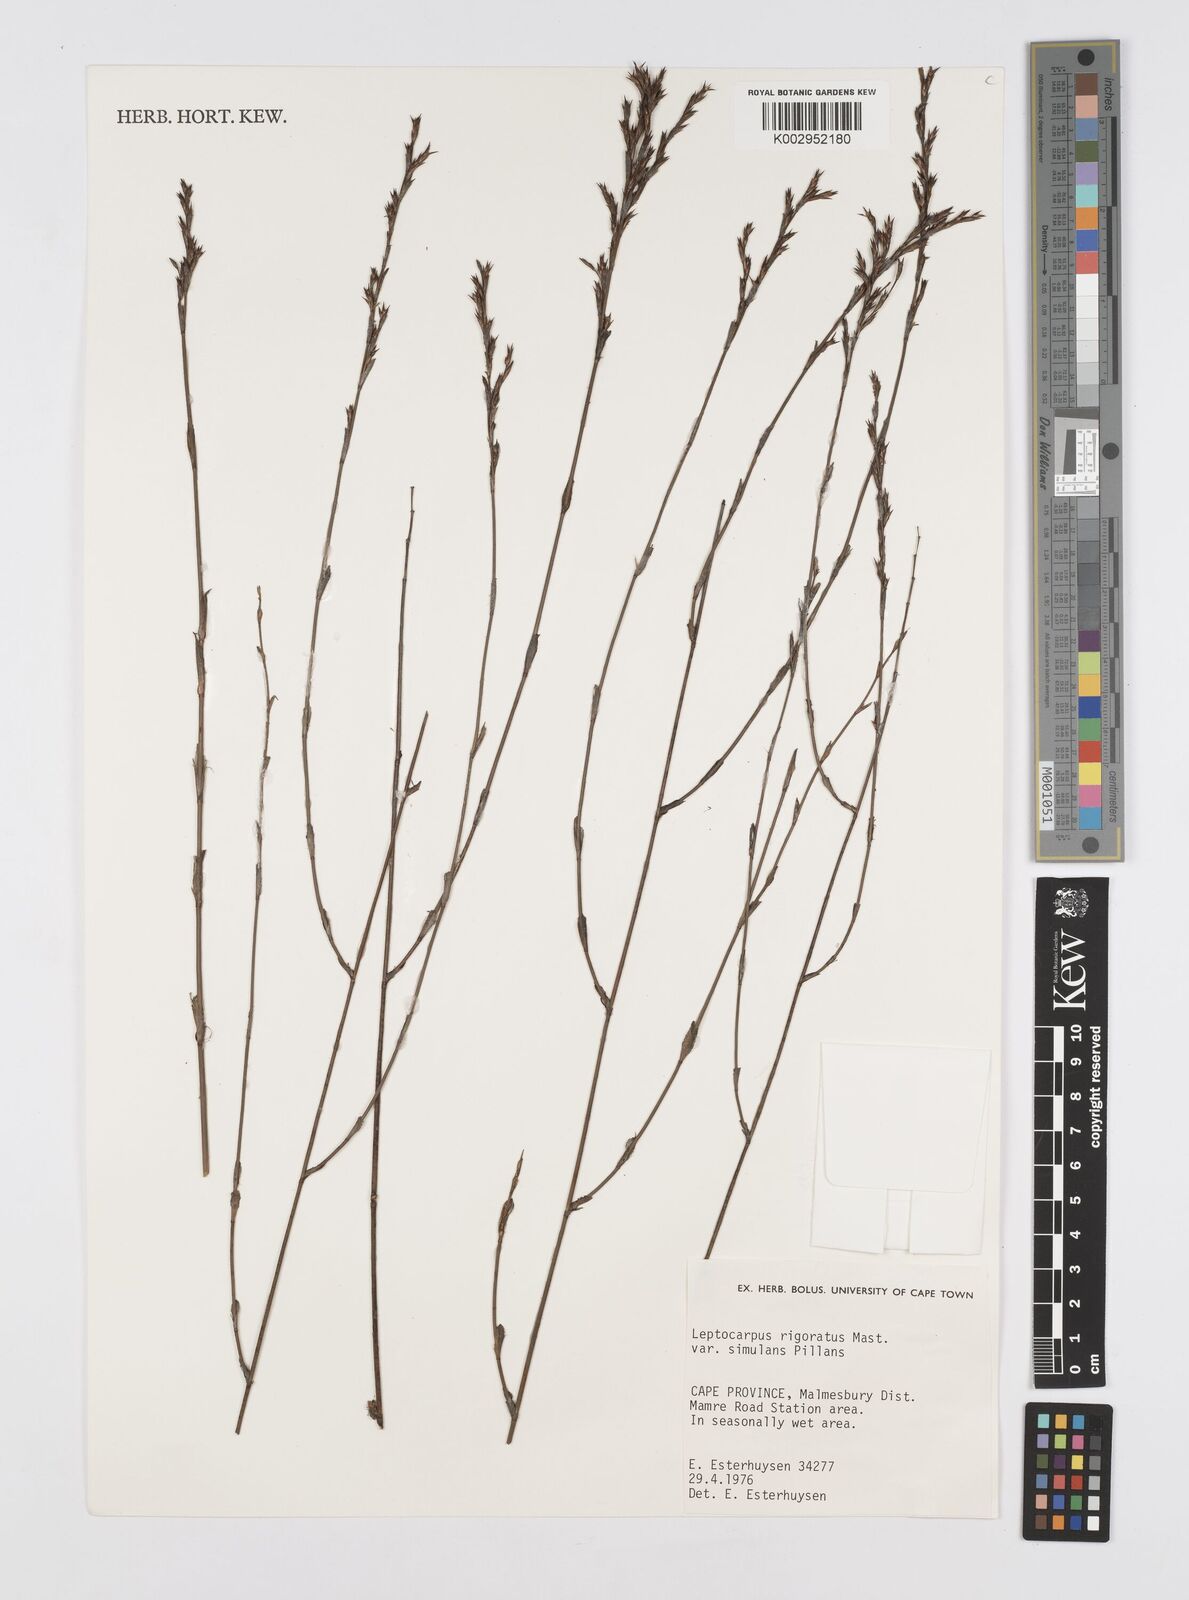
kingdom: Plantae
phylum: Tracheophyta
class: Liliopsida
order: Poales
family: Restionaceae
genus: Restio
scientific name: Restio rigoratus
